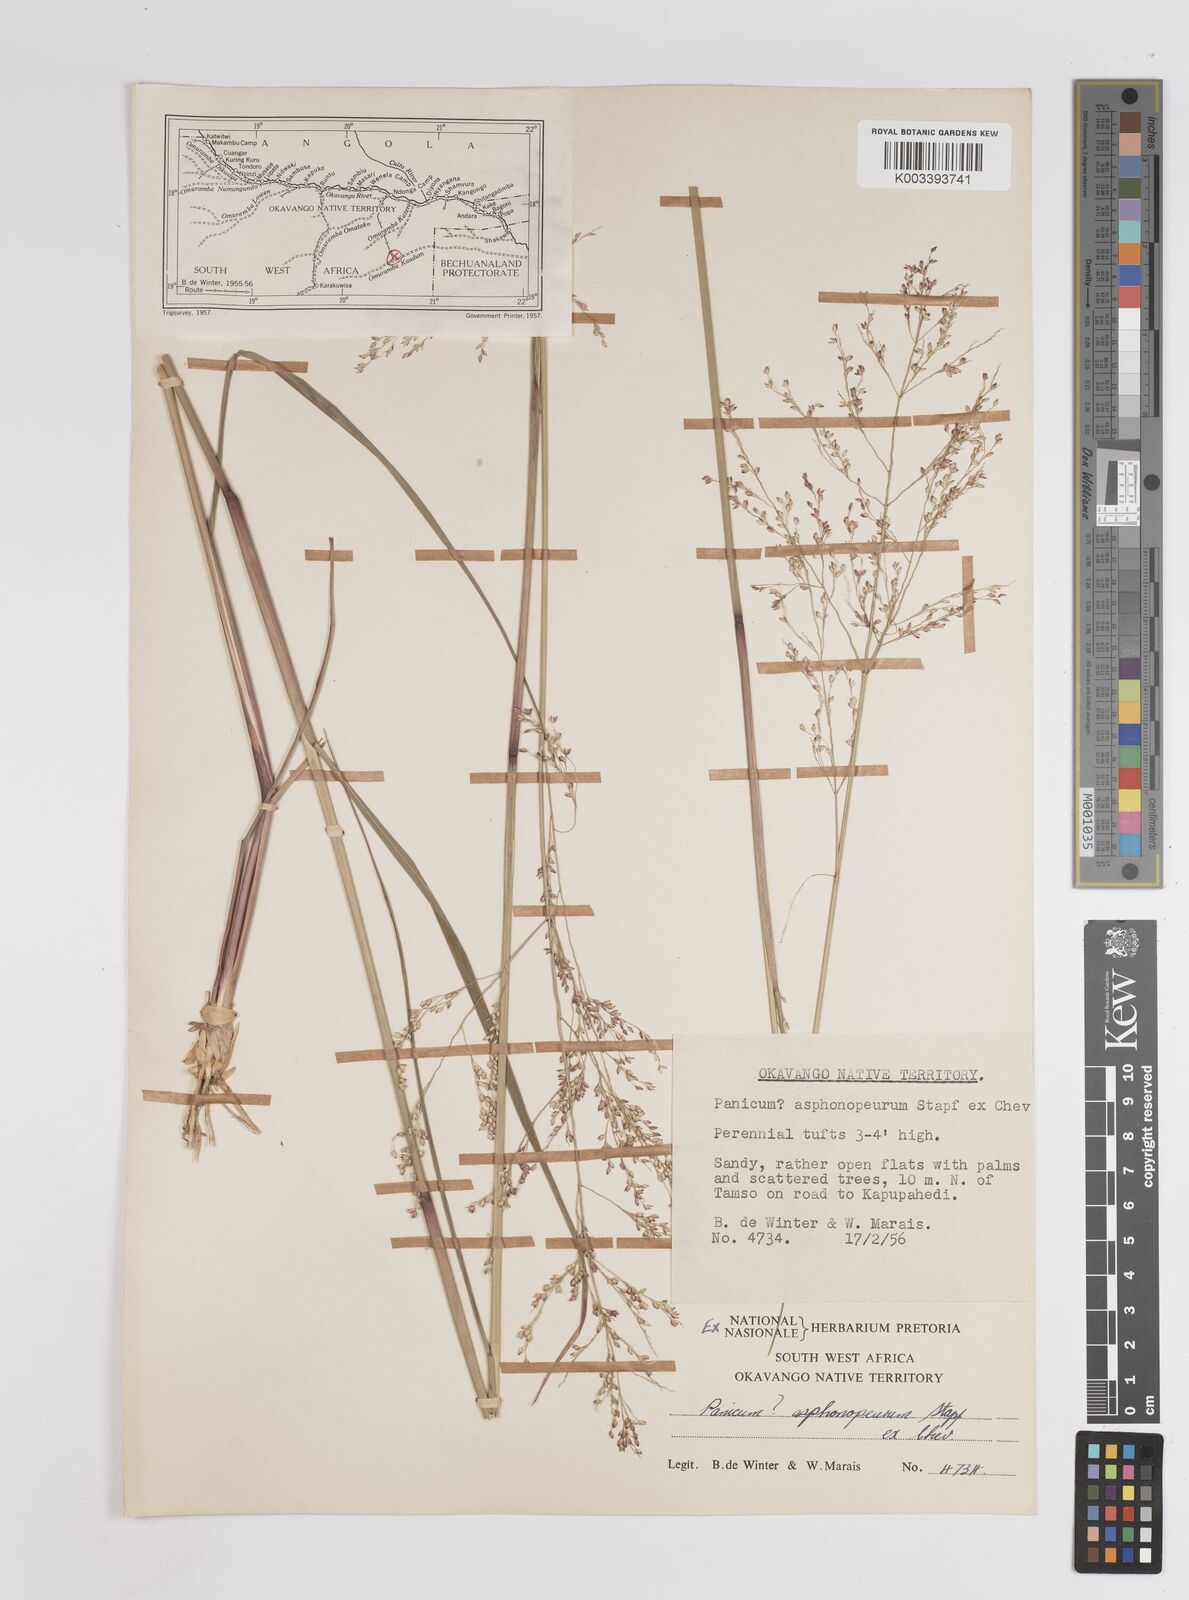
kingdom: Plantae
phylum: Tracheophyta
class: Liliopsida
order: Poales
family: Poaceae
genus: Panicum
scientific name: Panicum fluviicola
